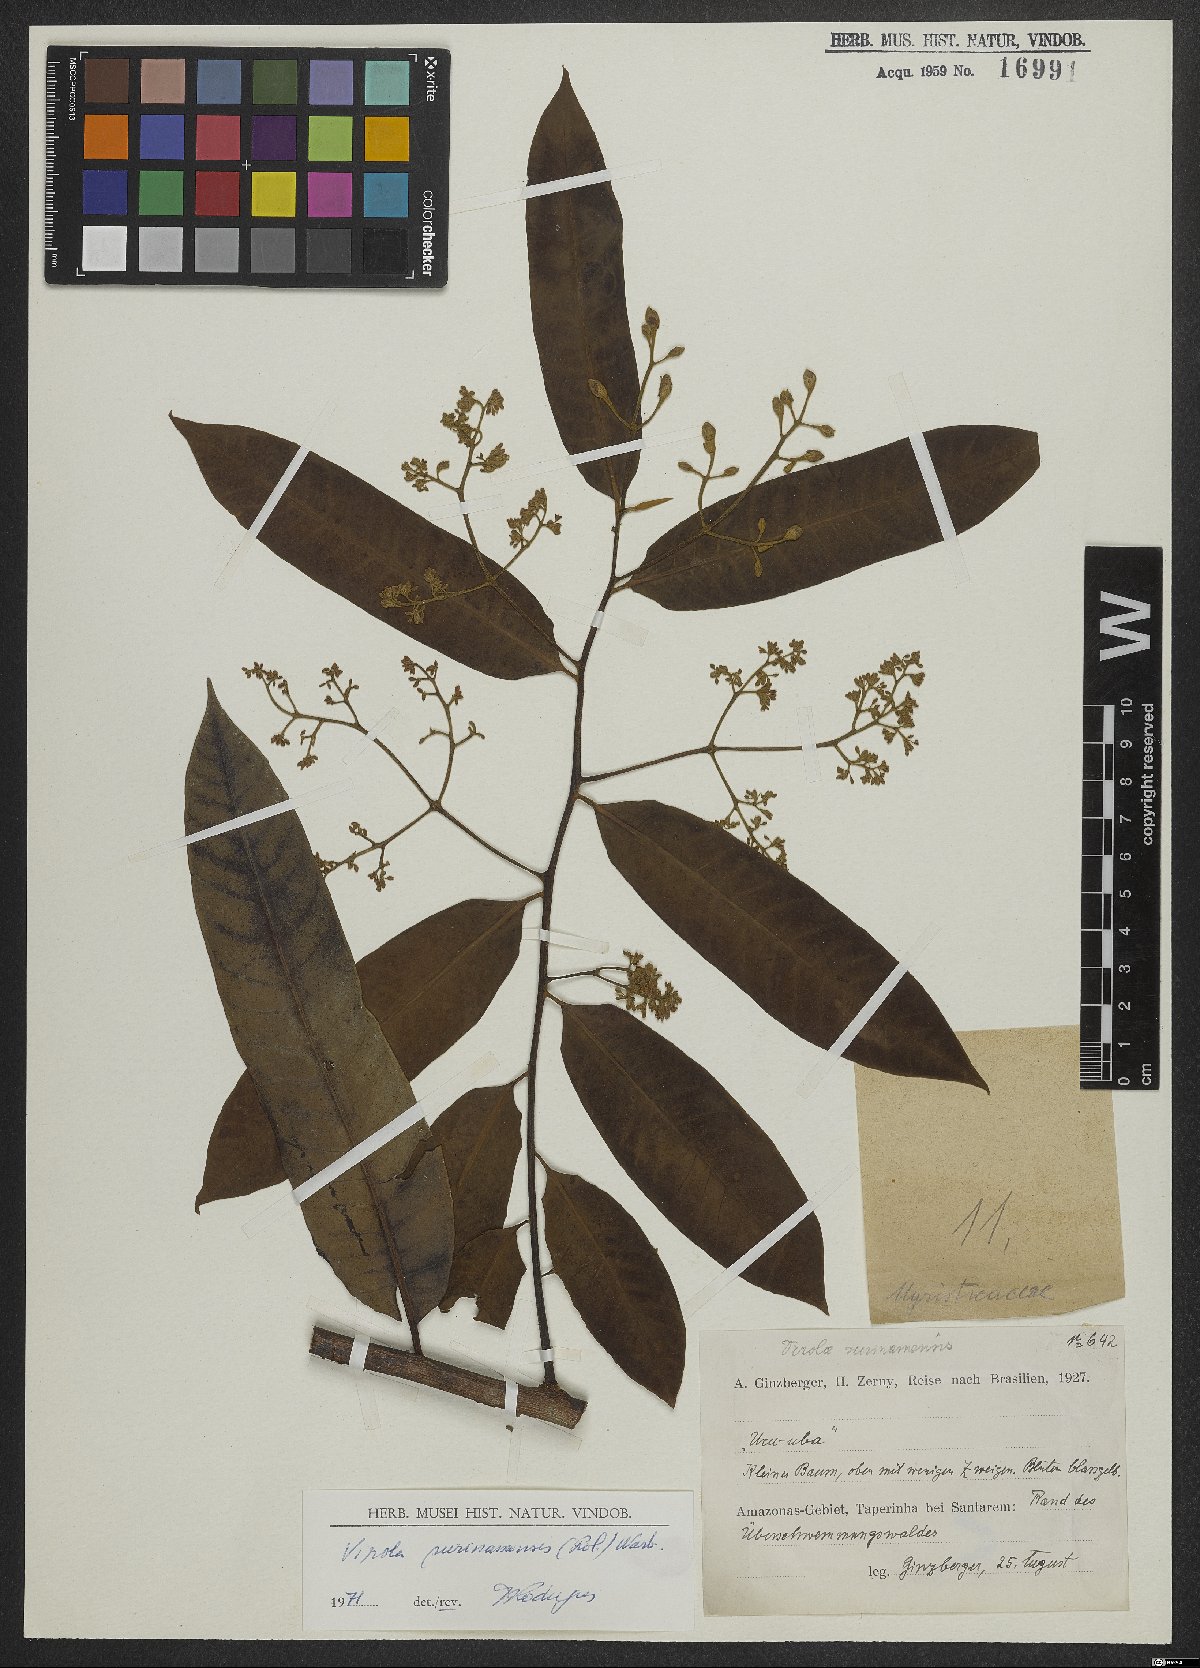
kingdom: Plantae
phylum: Tracheophyta
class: Magnoliopsida
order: Magnoliales
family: Myristicaceae
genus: Virola
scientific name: Virola surinamensis
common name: Baboonwood
